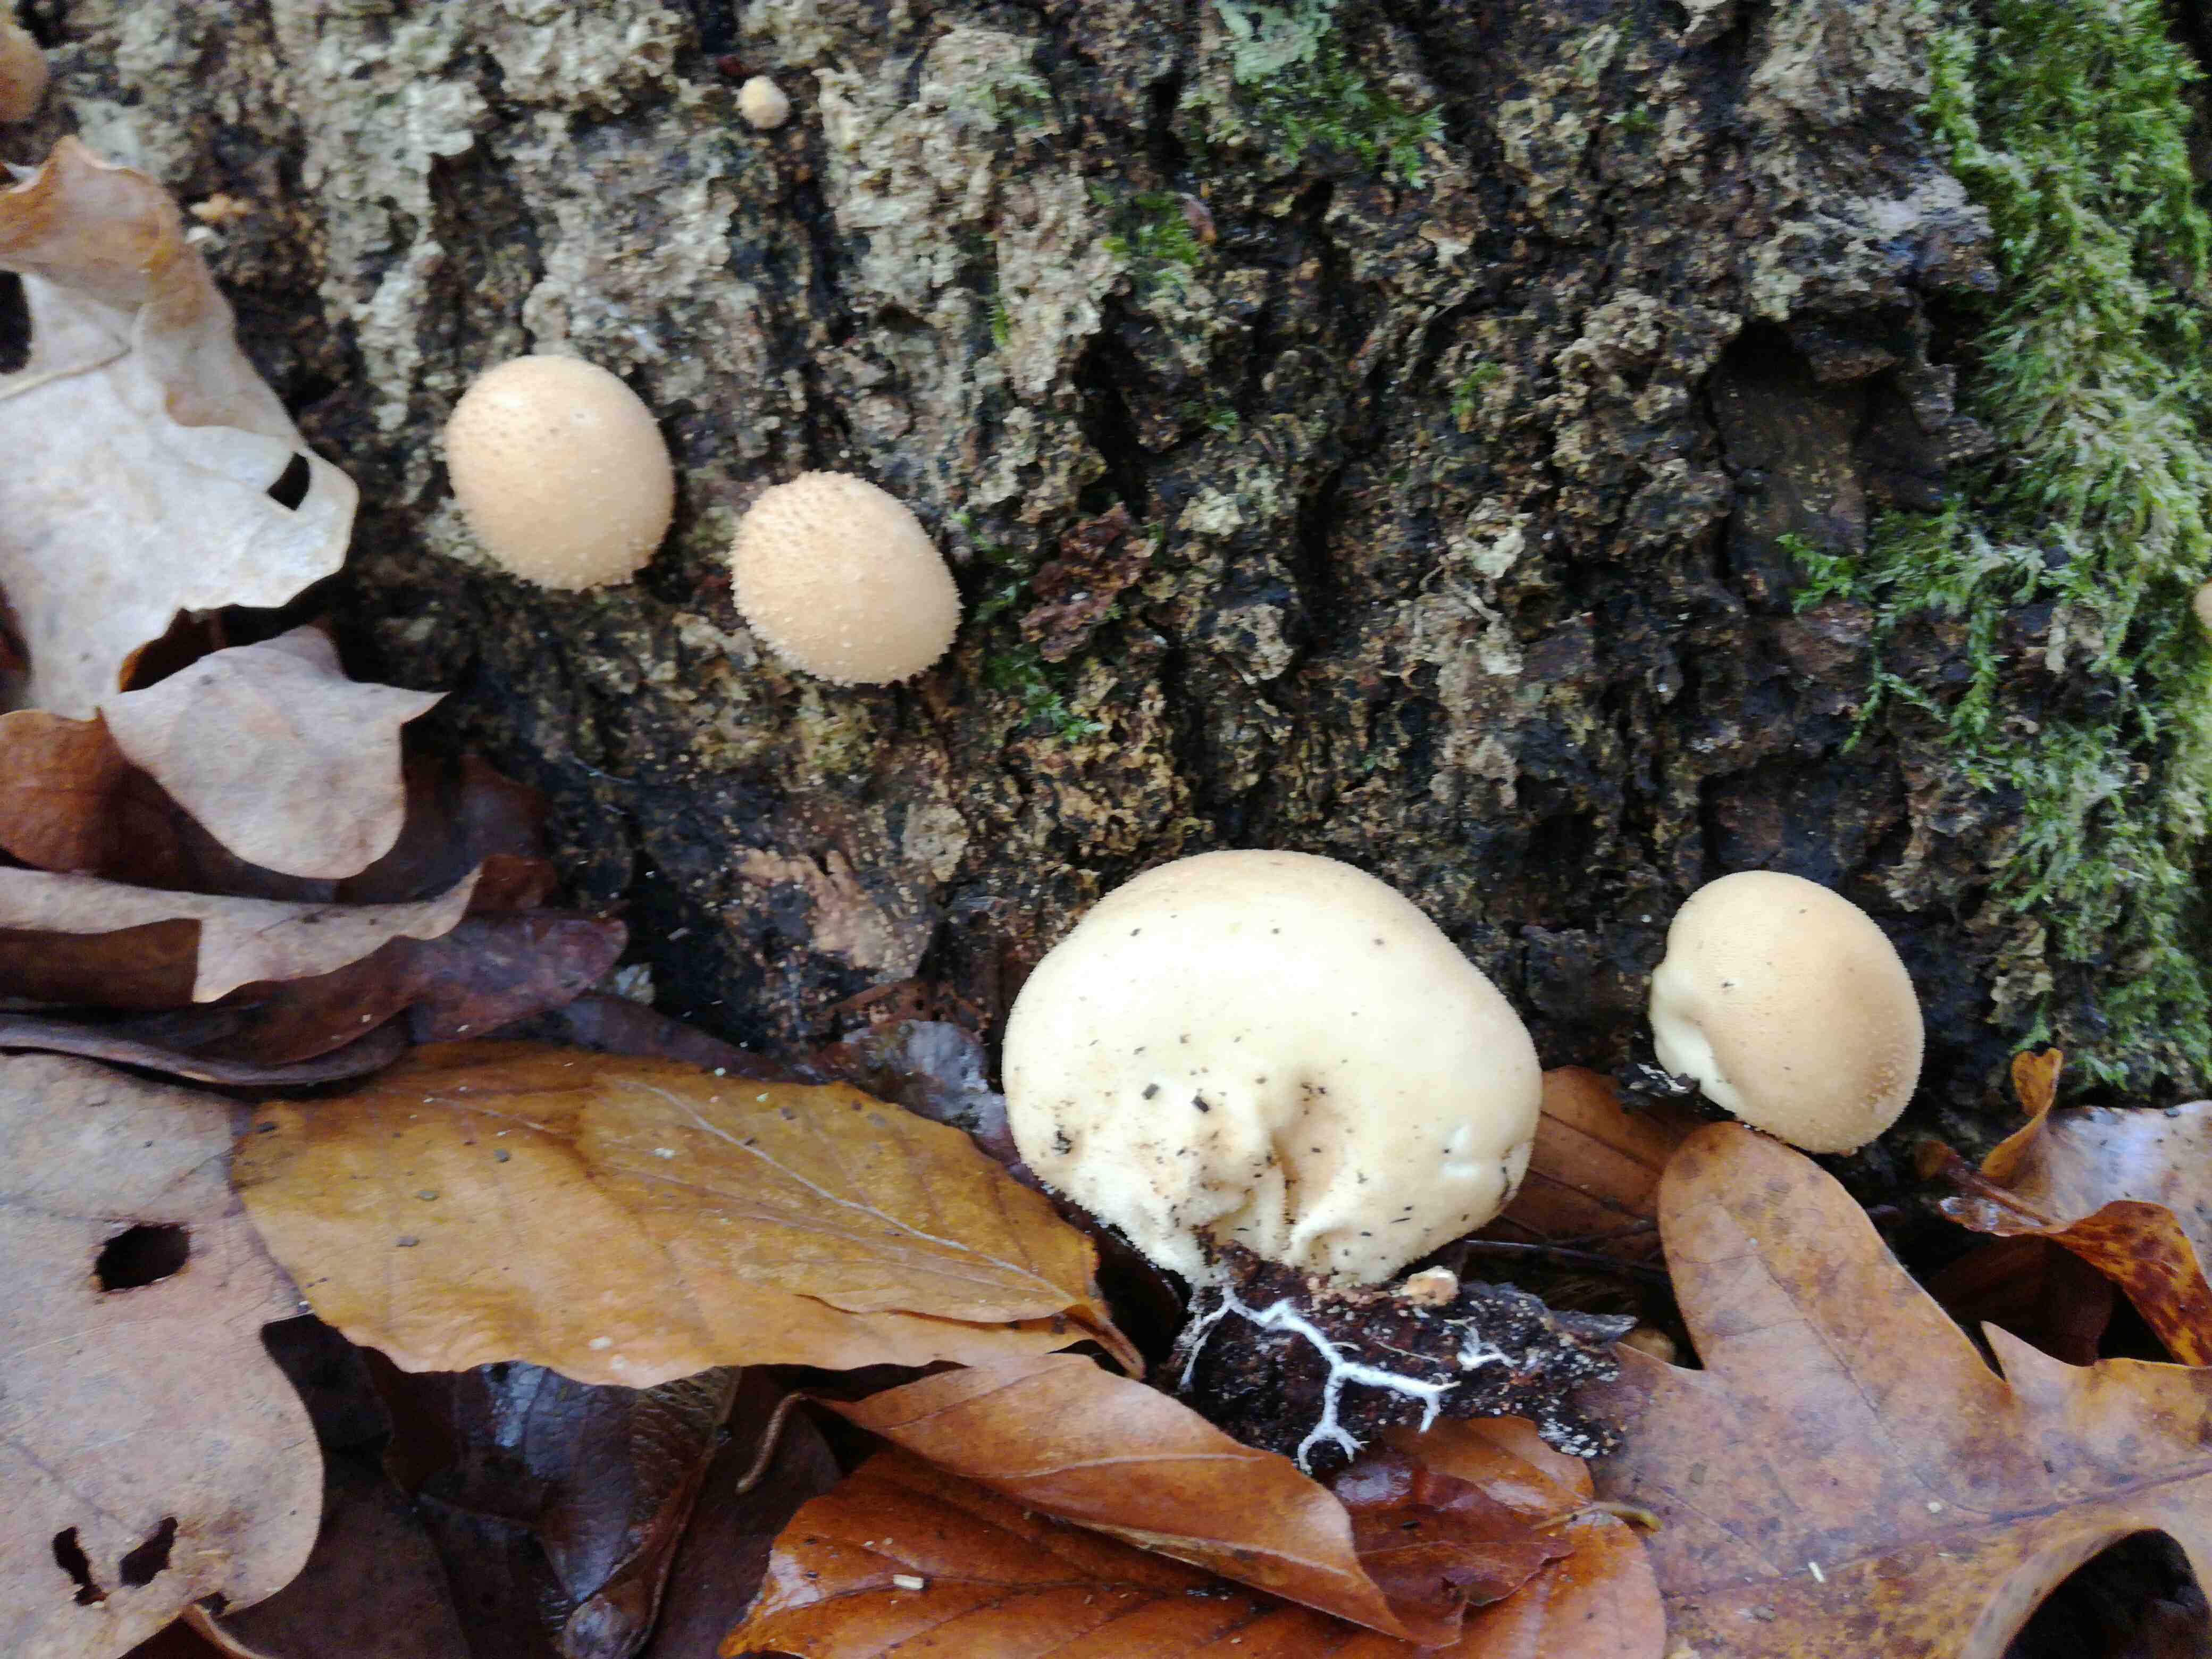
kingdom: Fungi
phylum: Basidiomycota
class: Agaricomycetes
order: Agaricales
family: Lycoperdaceae
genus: Apioperdon
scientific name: Apioperdon pyriforme
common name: pære-støvbold
